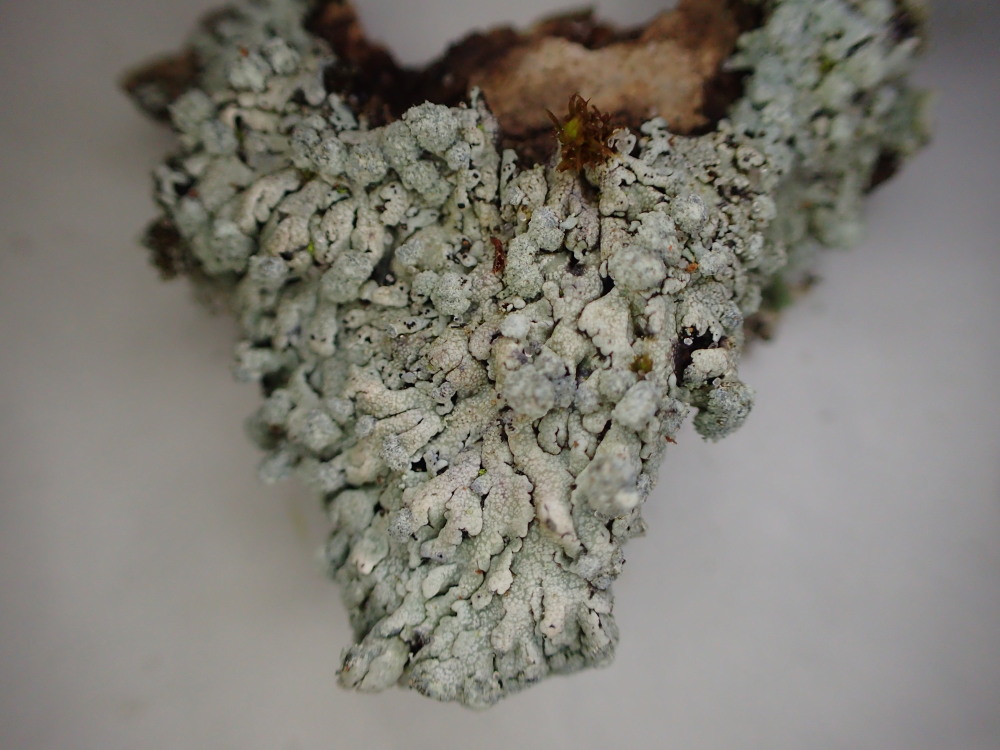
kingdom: Fungi
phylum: Ascomycota
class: Lecanoromycetes
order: Caliciales
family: Physciaceae
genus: Physcia
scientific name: Physcia caesia
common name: blågrå rosetlav
